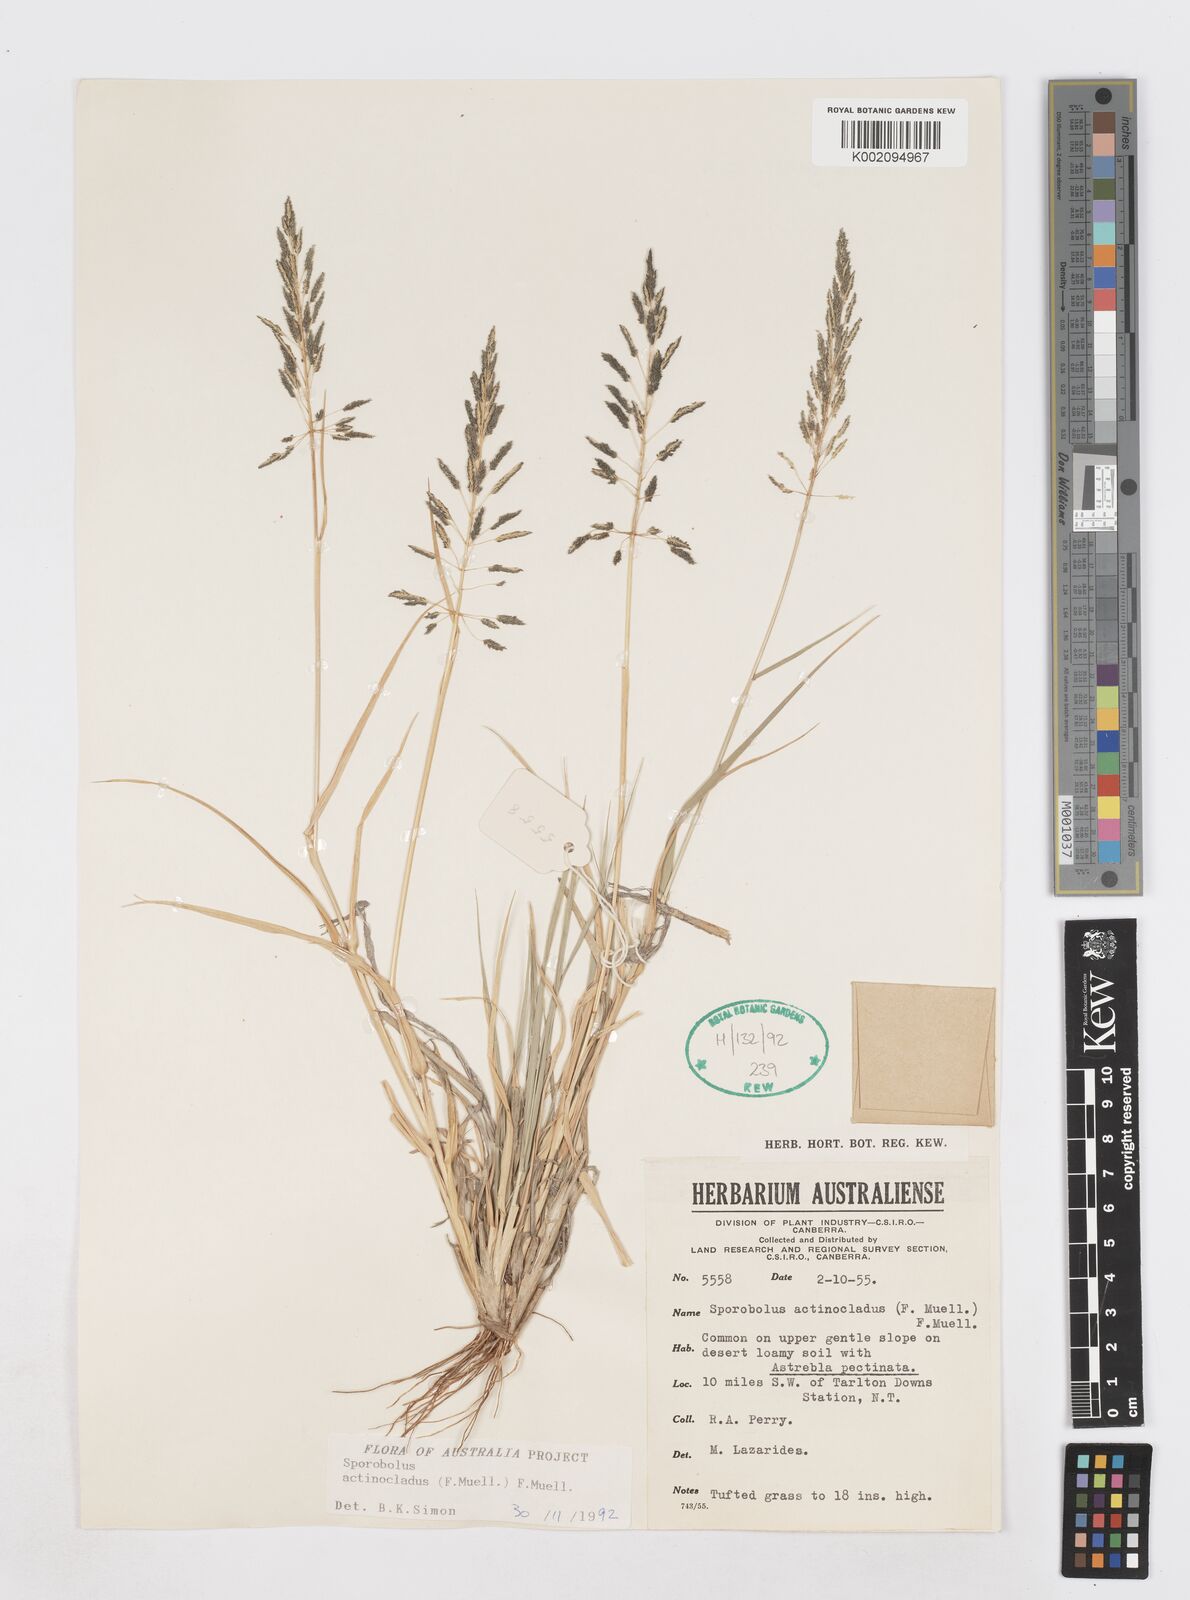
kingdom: Plantae
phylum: Tracheophyta
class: Liliopsida
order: Poales
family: Poaceae
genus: Sporobolus
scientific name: Sporobolus actinocladus
